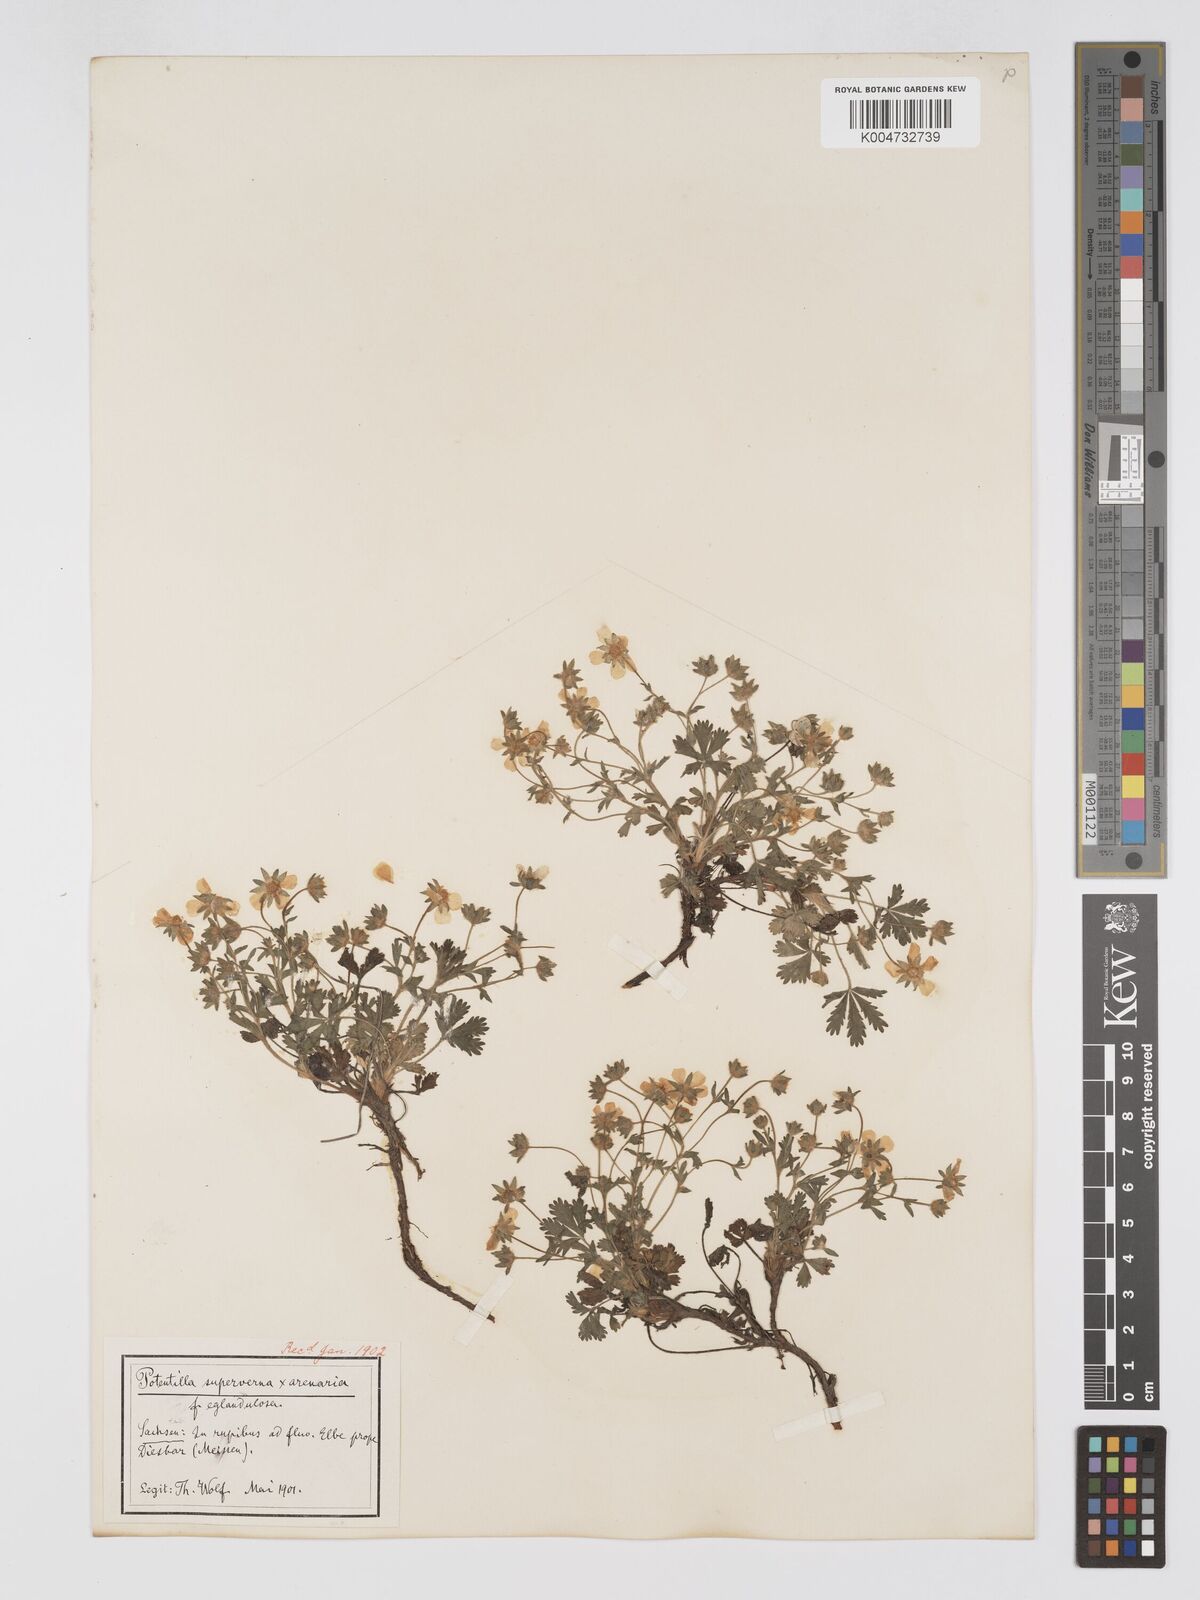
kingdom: Plantae
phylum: Tracheophyta
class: Magnoliopsida
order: Rosales
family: Rosaceae
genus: Potentilla
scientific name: Potentilla cinerea
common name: Ashy cinquefoil
